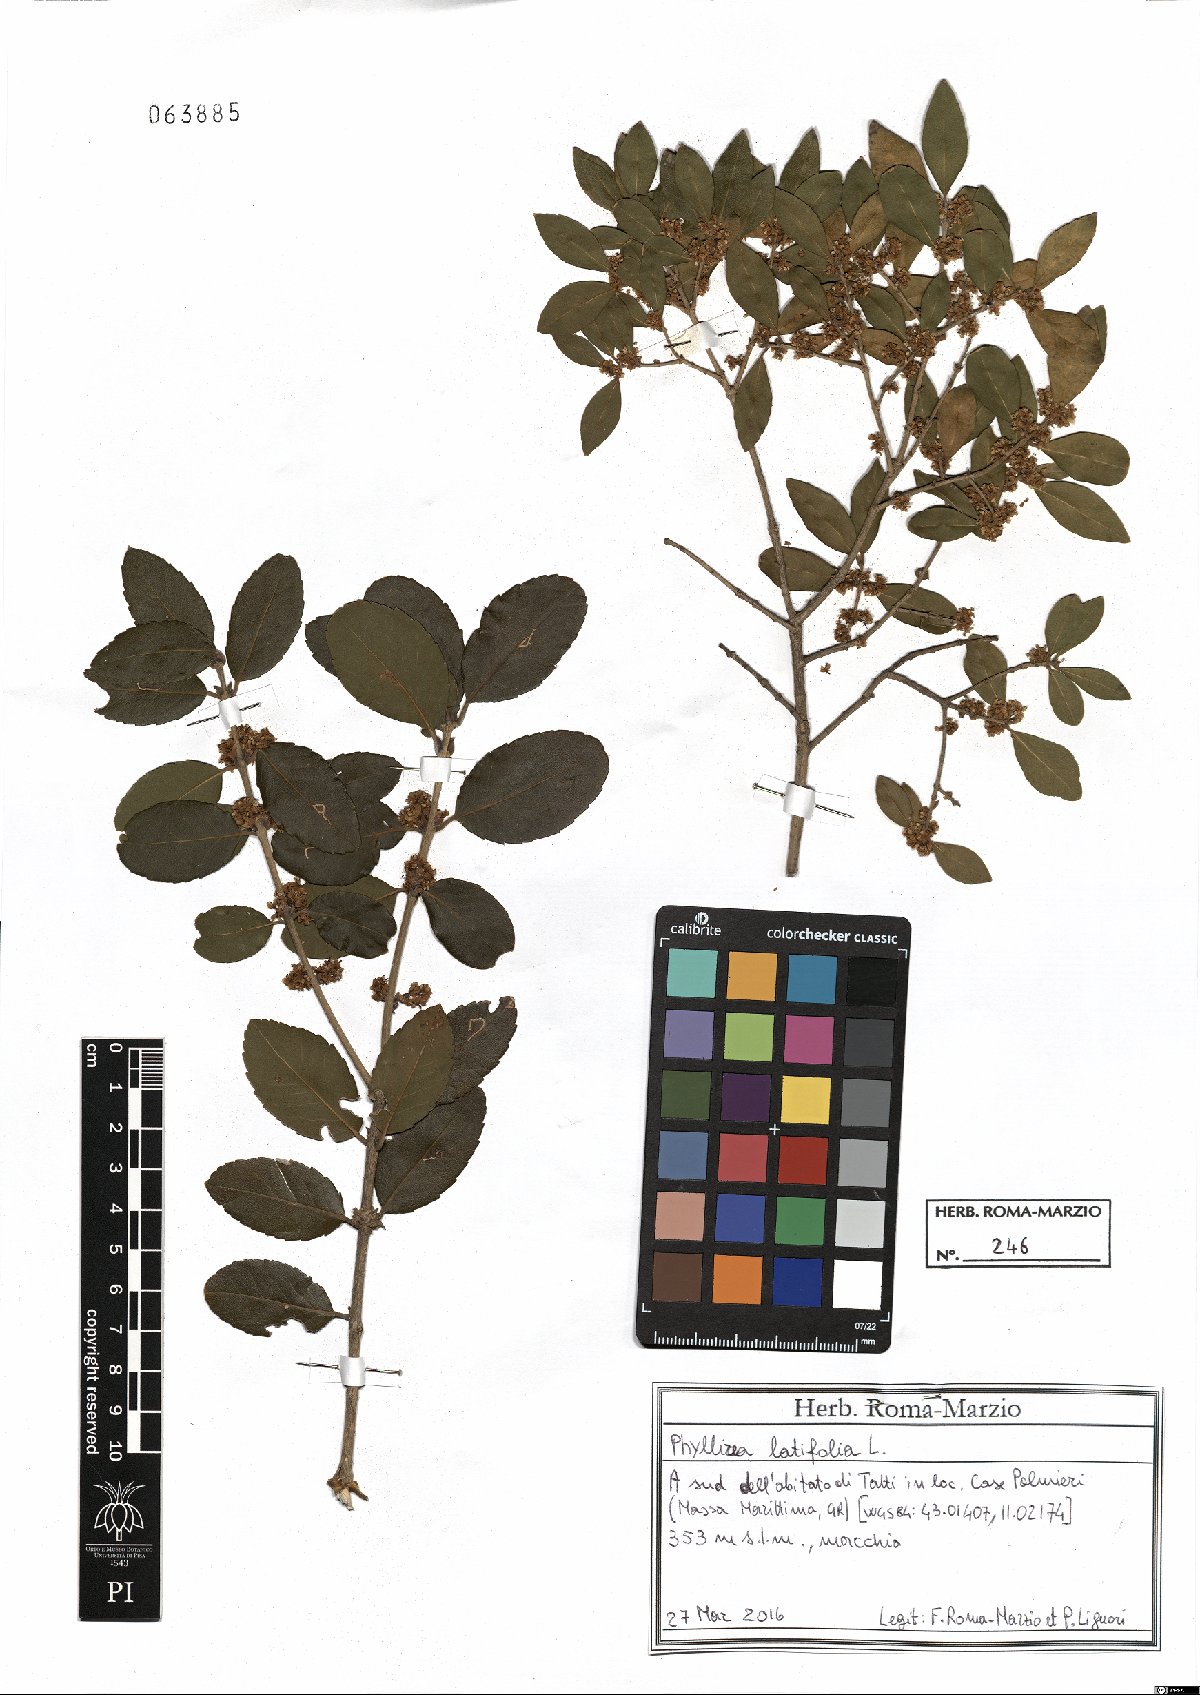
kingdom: Plantae
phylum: Tracheophyta
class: Magnoliopsida
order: Lamiales
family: Oleaceae
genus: Phillyrea
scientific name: Phillyrea latifolia
